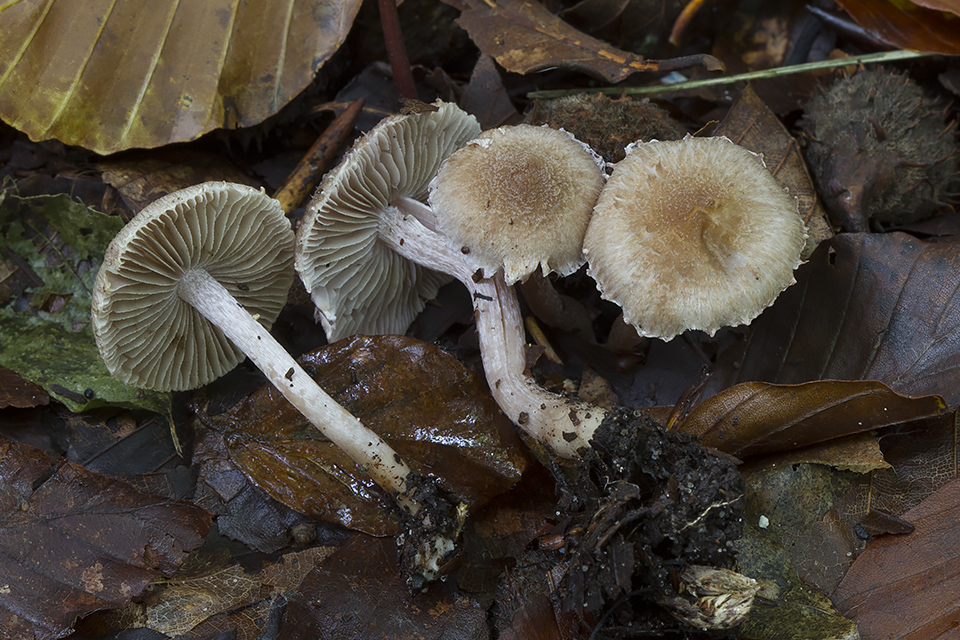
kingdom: Fungi
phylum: Basidiomycota
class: Agaricomycetes
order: Agaricales
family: Inocybaceae
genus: Inocybe
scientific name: Inocybe griseolilacina
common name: lillagrå trævlhat
